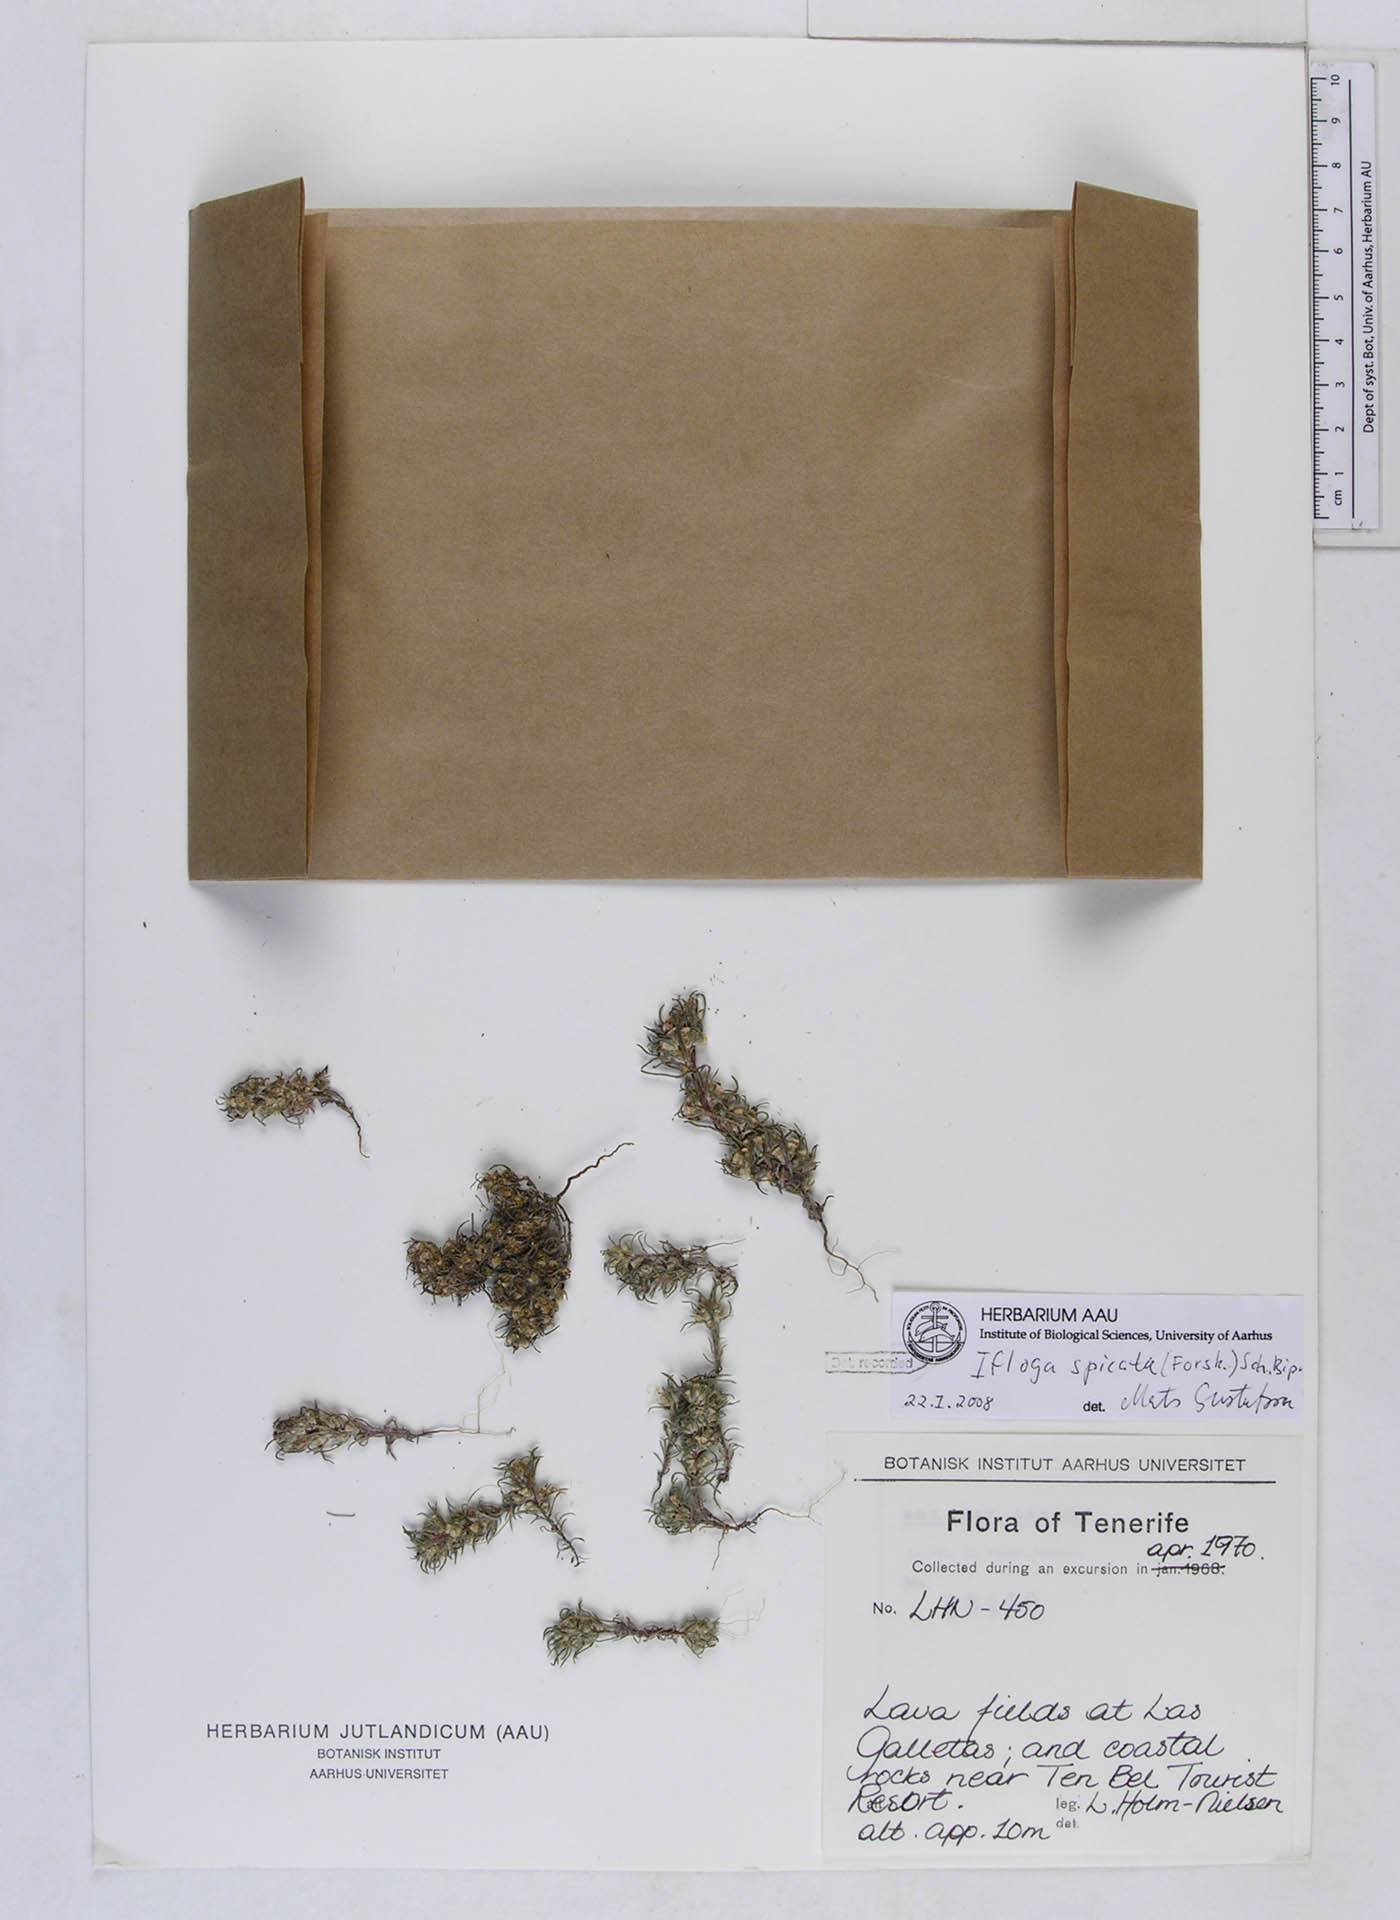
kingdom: Plantae
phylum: Tracheophyta
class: Magnoliopsida
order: Asterales
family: Asteraceae
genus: Ifloga
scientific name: Ifloga spicata
